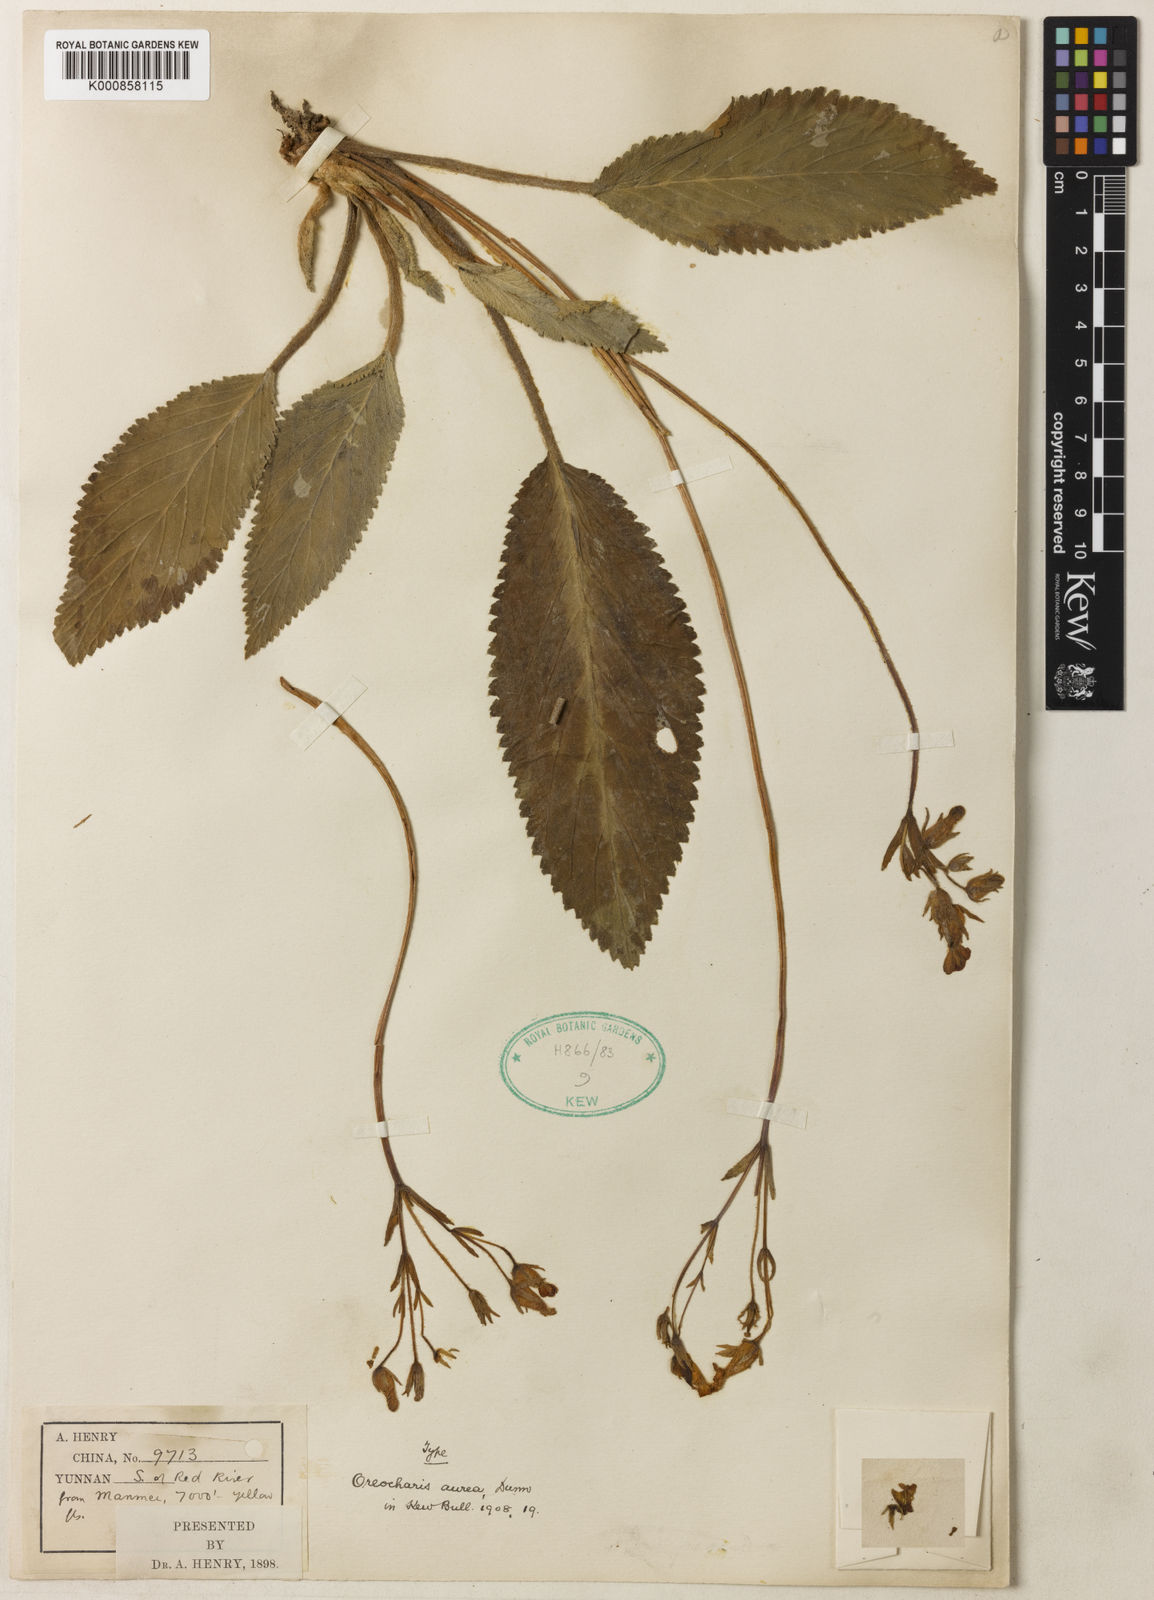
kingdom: Plantae
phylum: Tracheophyta
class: Magnoliopsida
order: Lamiales
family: Gesneriaceae
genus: Oreocharis
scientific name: Oreocharis aurea
